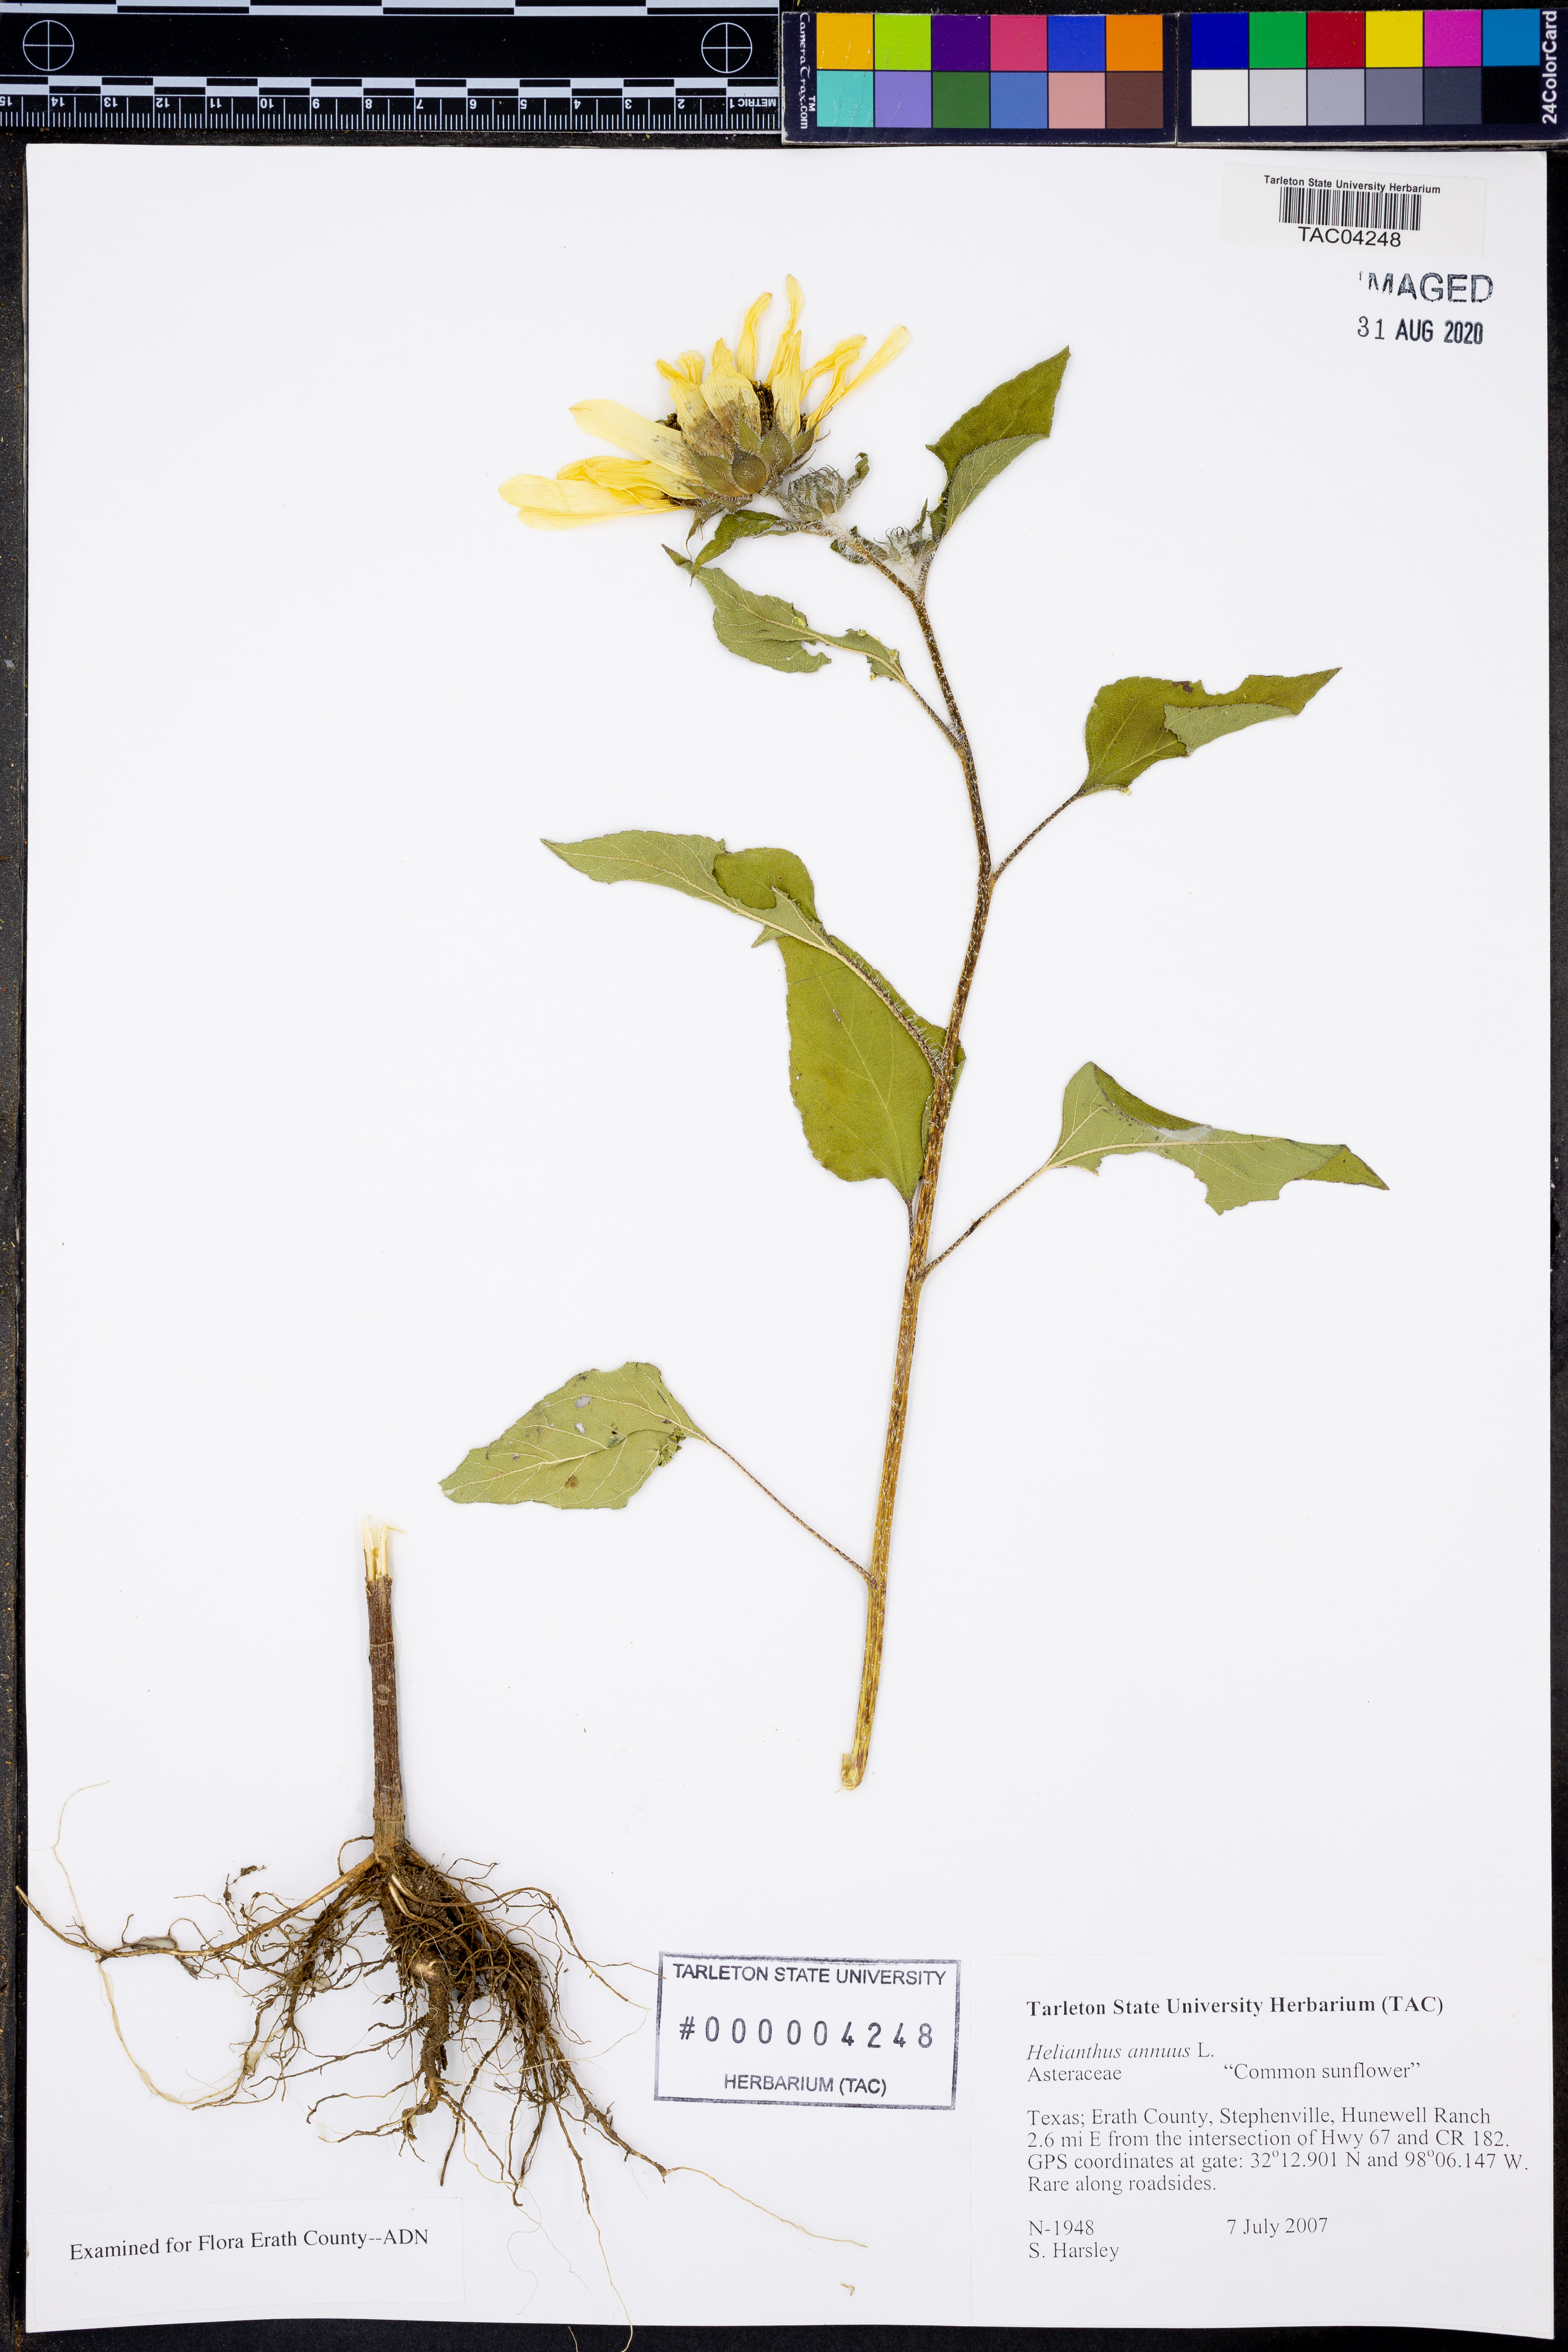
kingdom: Plantae
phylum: Tracheophyta
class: Magnoliopsida
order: Asterales
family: Asteraceae
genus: Helianthus
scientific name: Helianthus annuus
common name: Sunflower
